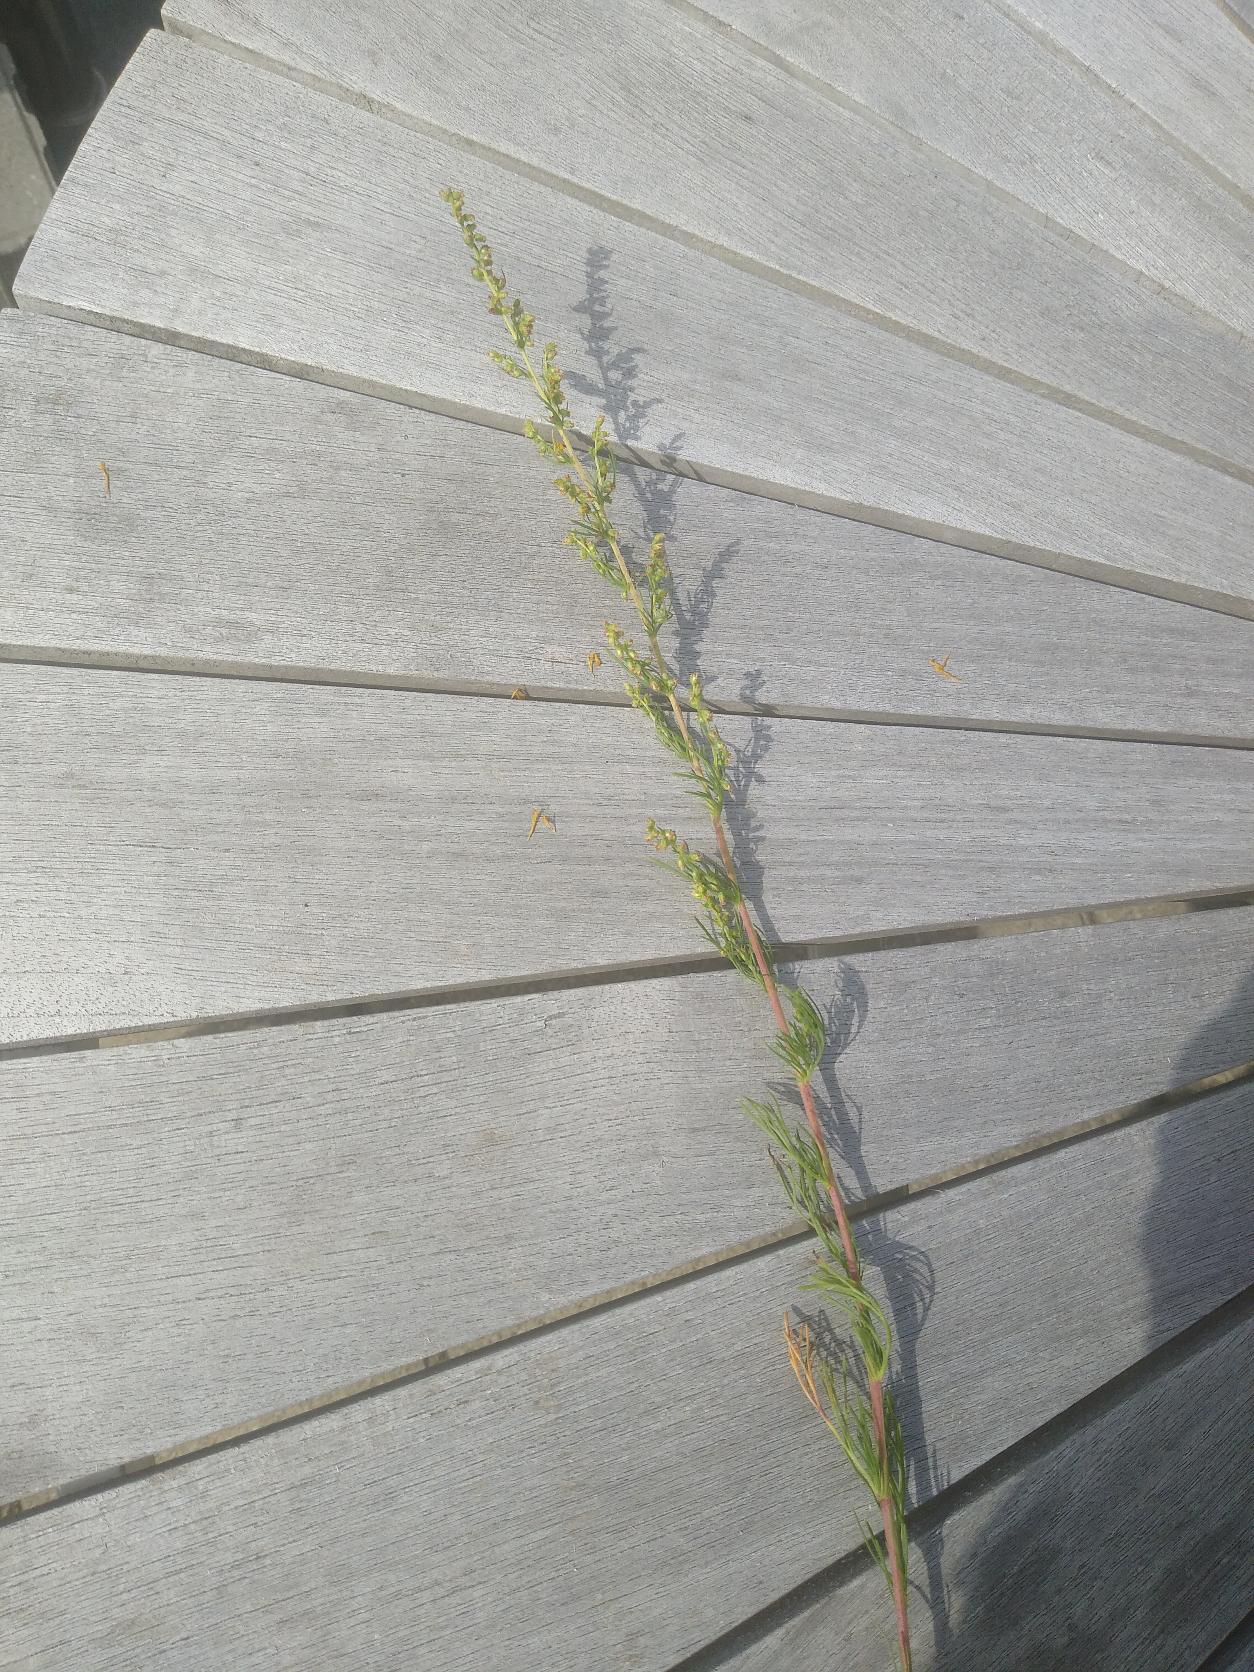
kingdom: Plantae
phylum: Tracheophyta
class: Magnoliopsida
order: Asterales
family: Asteraceae
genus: Artemisia
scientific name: Artemisia campestris
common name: Mark-bynke
